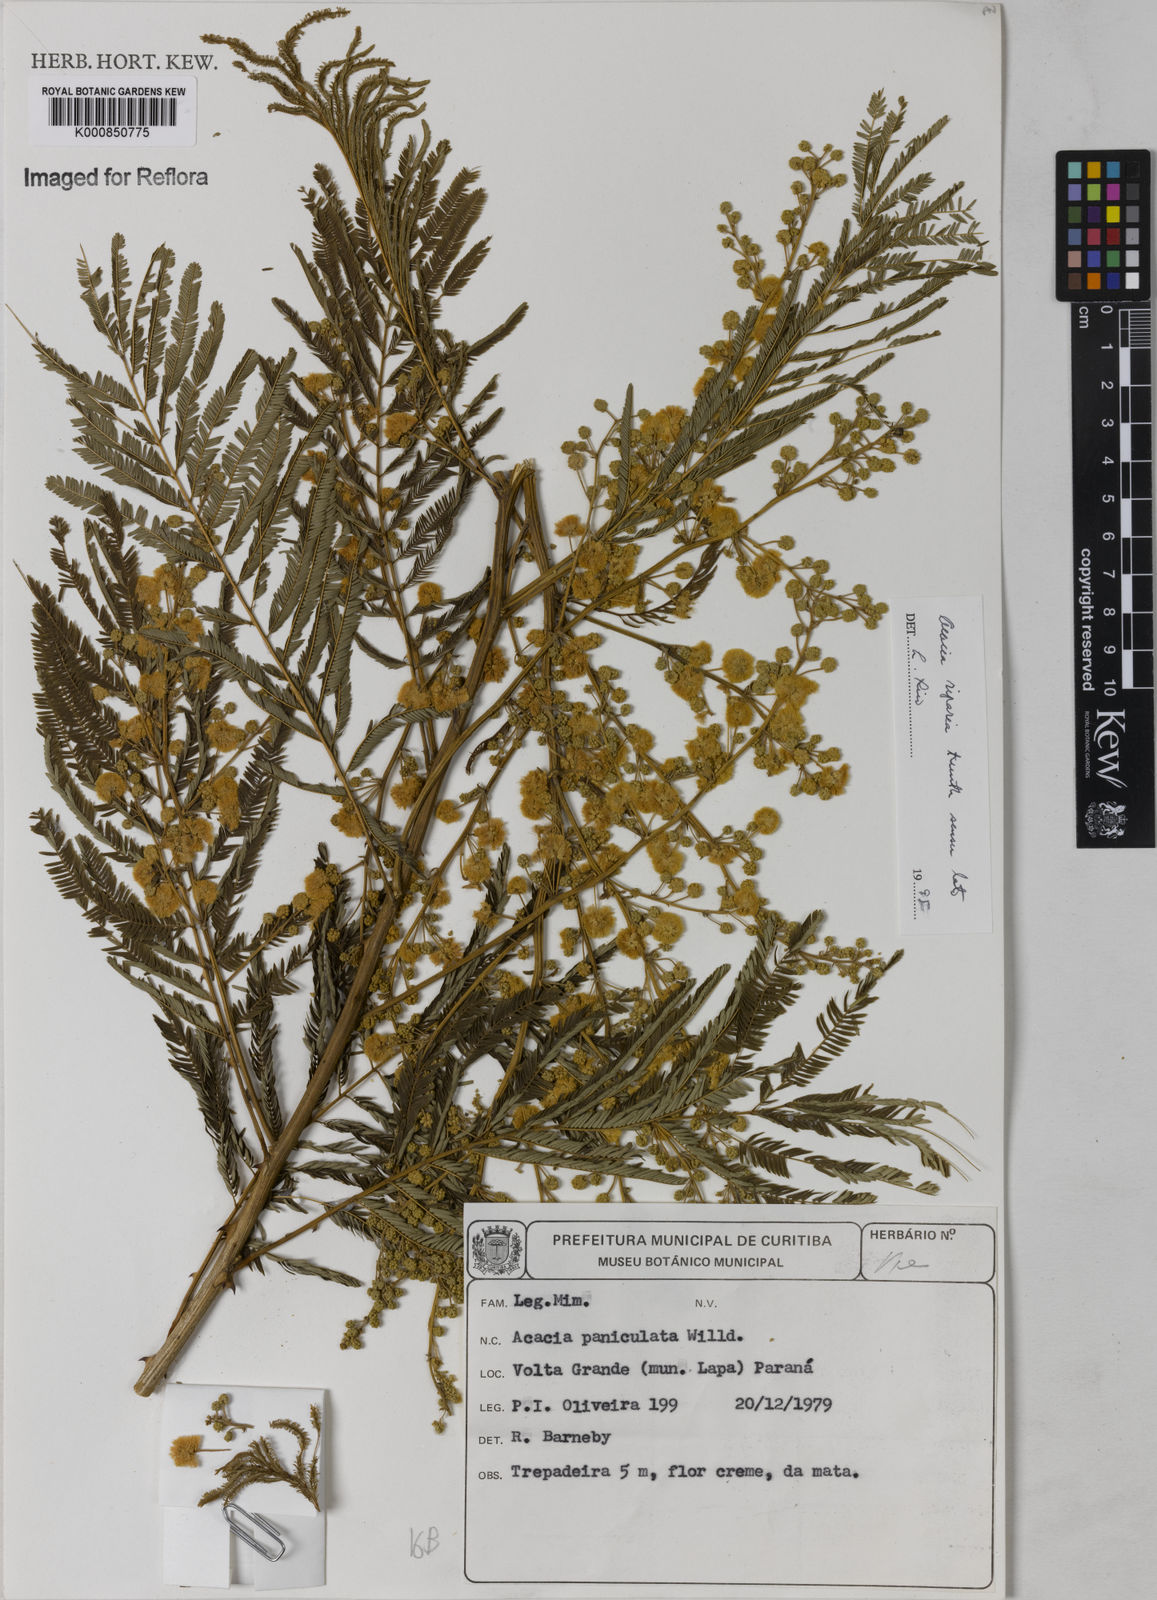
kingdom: Plantae
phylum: Tracheophyta
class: Magnoliopsida
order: Fabales
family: Fabaceae
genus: Senegalia
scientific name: Senegalia riparia
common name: Catch-and-keep
